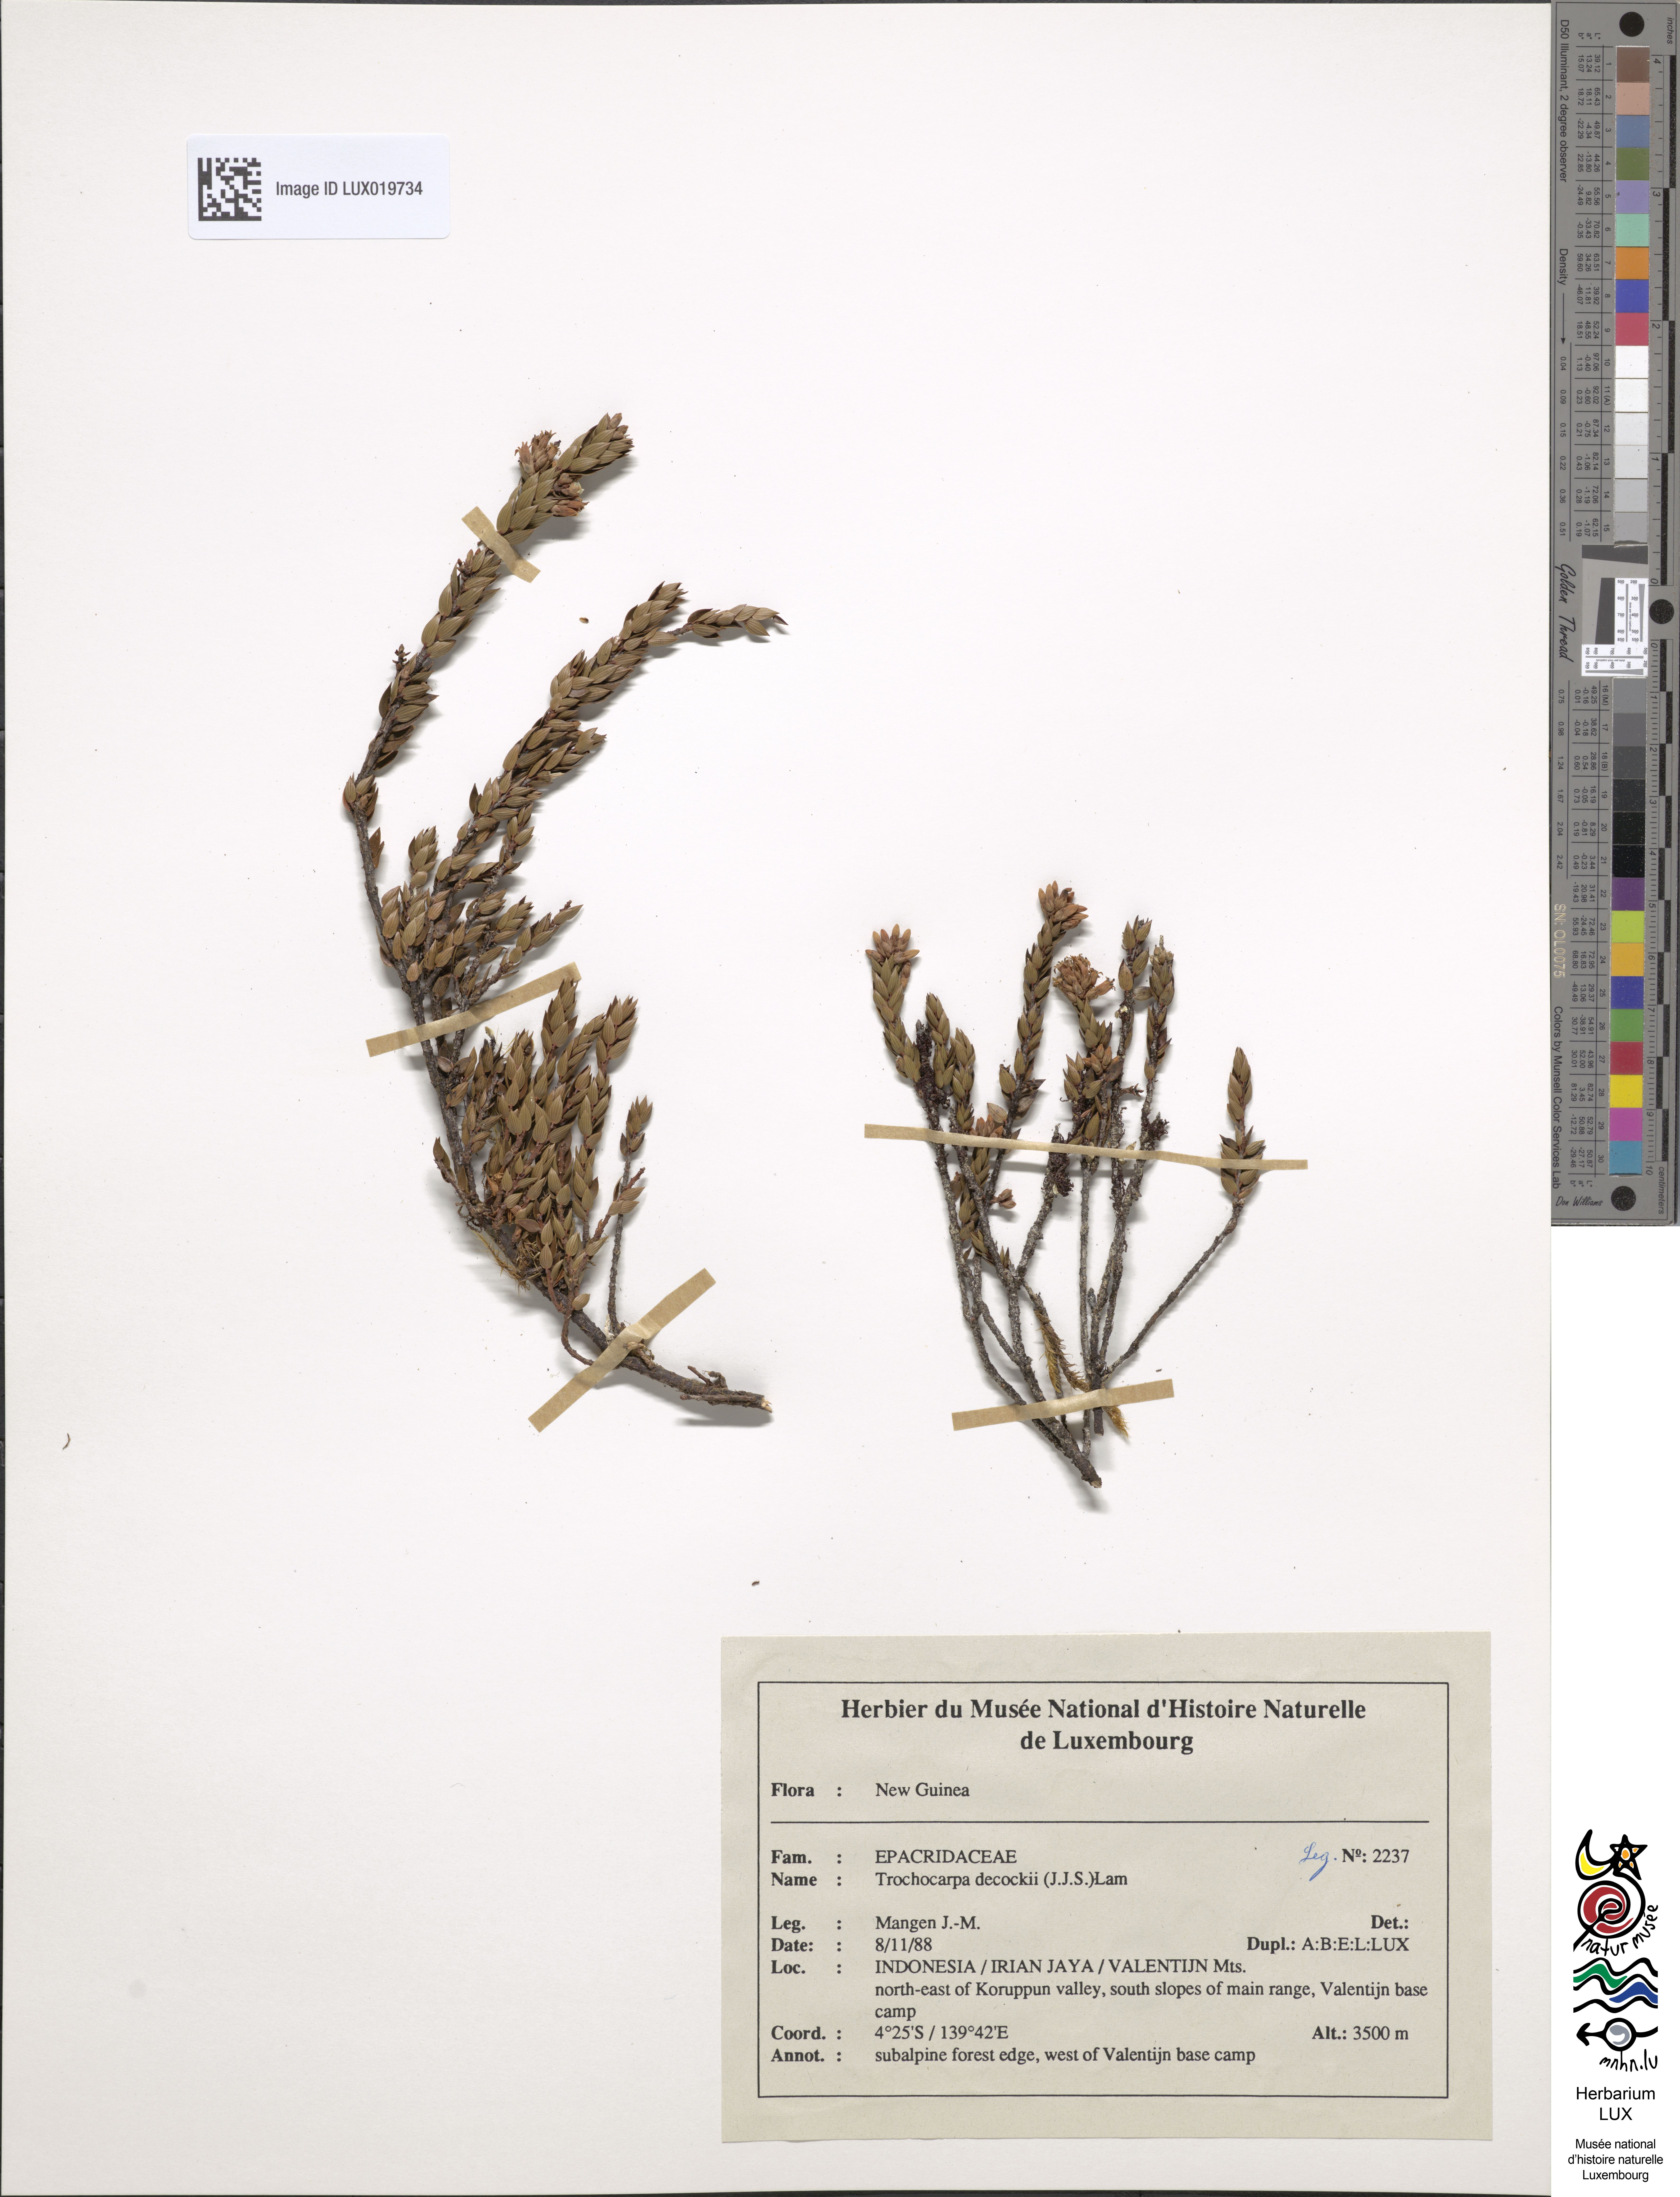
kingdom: Plantae
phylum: Tracheophyta
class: Magnoliopsida
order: Ericales
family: Ericaceae
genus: Trochocarpa
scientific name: Trochocarpa dekockii
